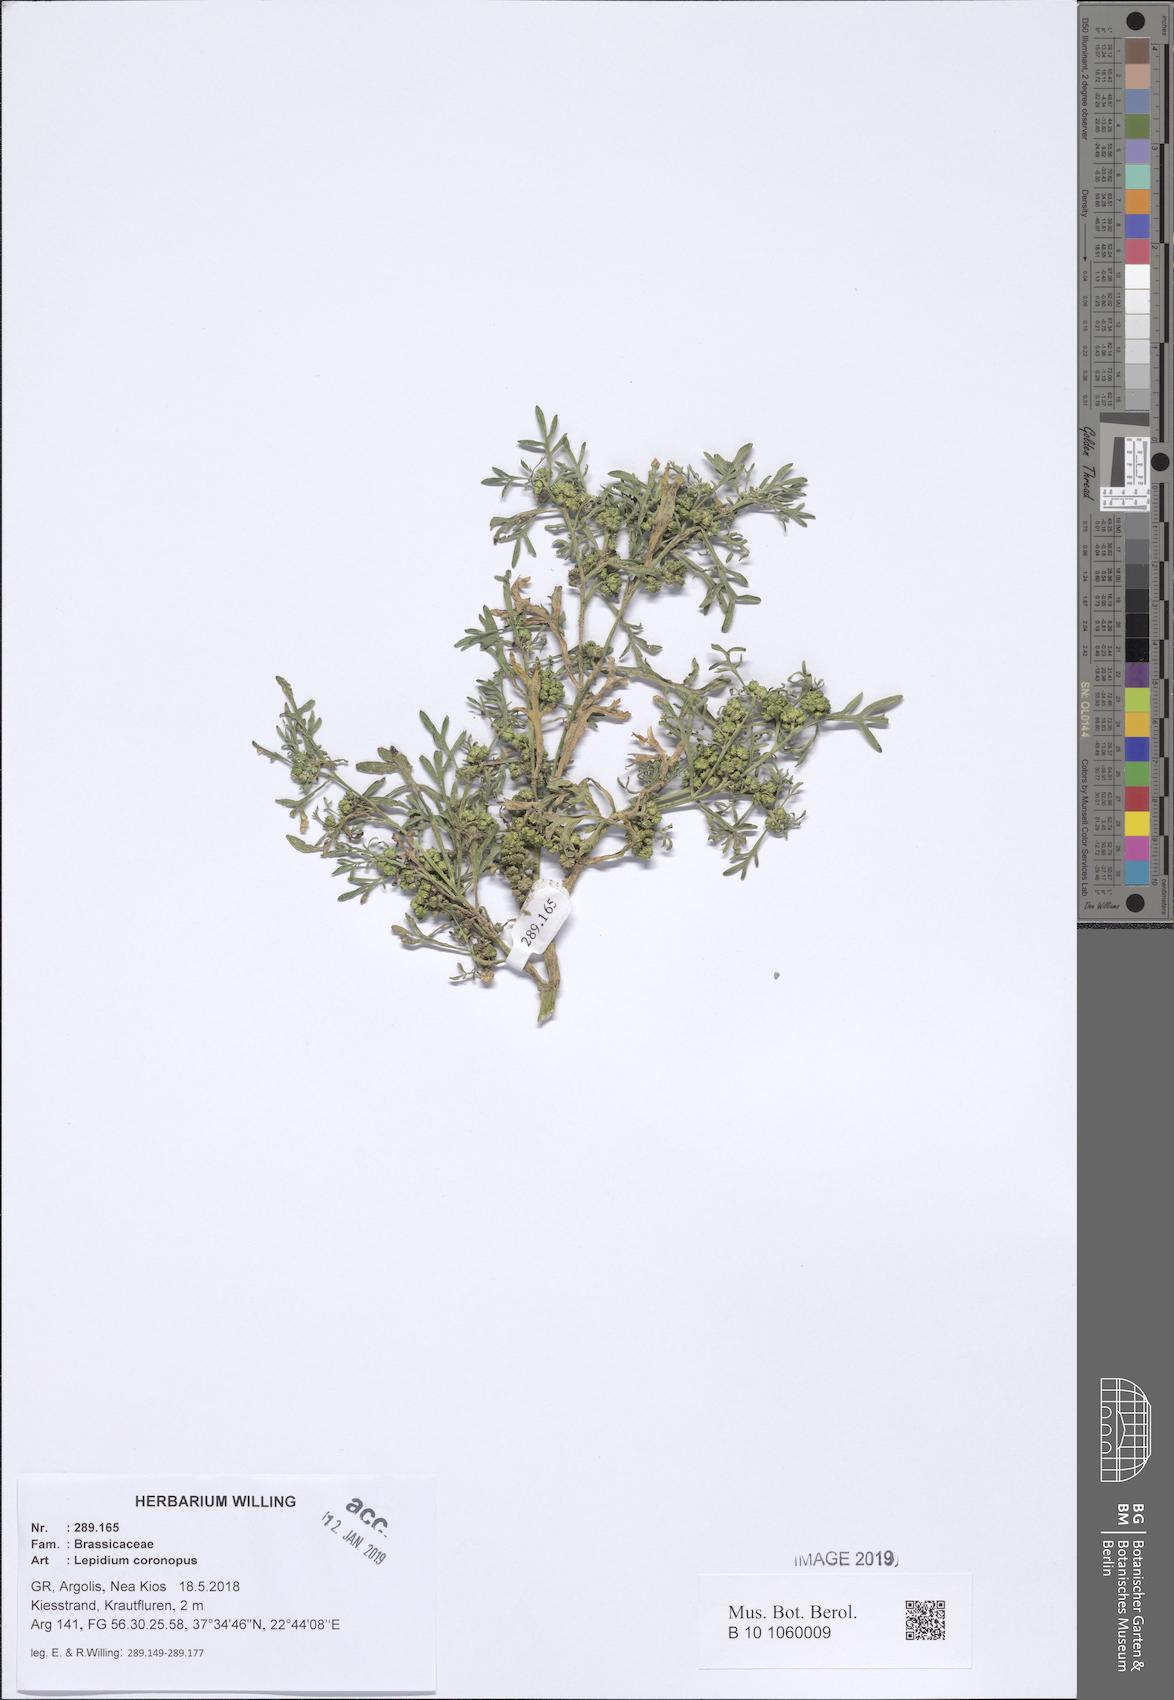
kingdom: Plantae
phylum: Tracheophyta
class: Magnoliopsida
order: Brassicales
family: Brassicaceae
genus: Lepidium
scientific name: Lepidium coronopus
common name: Greater swinecress
